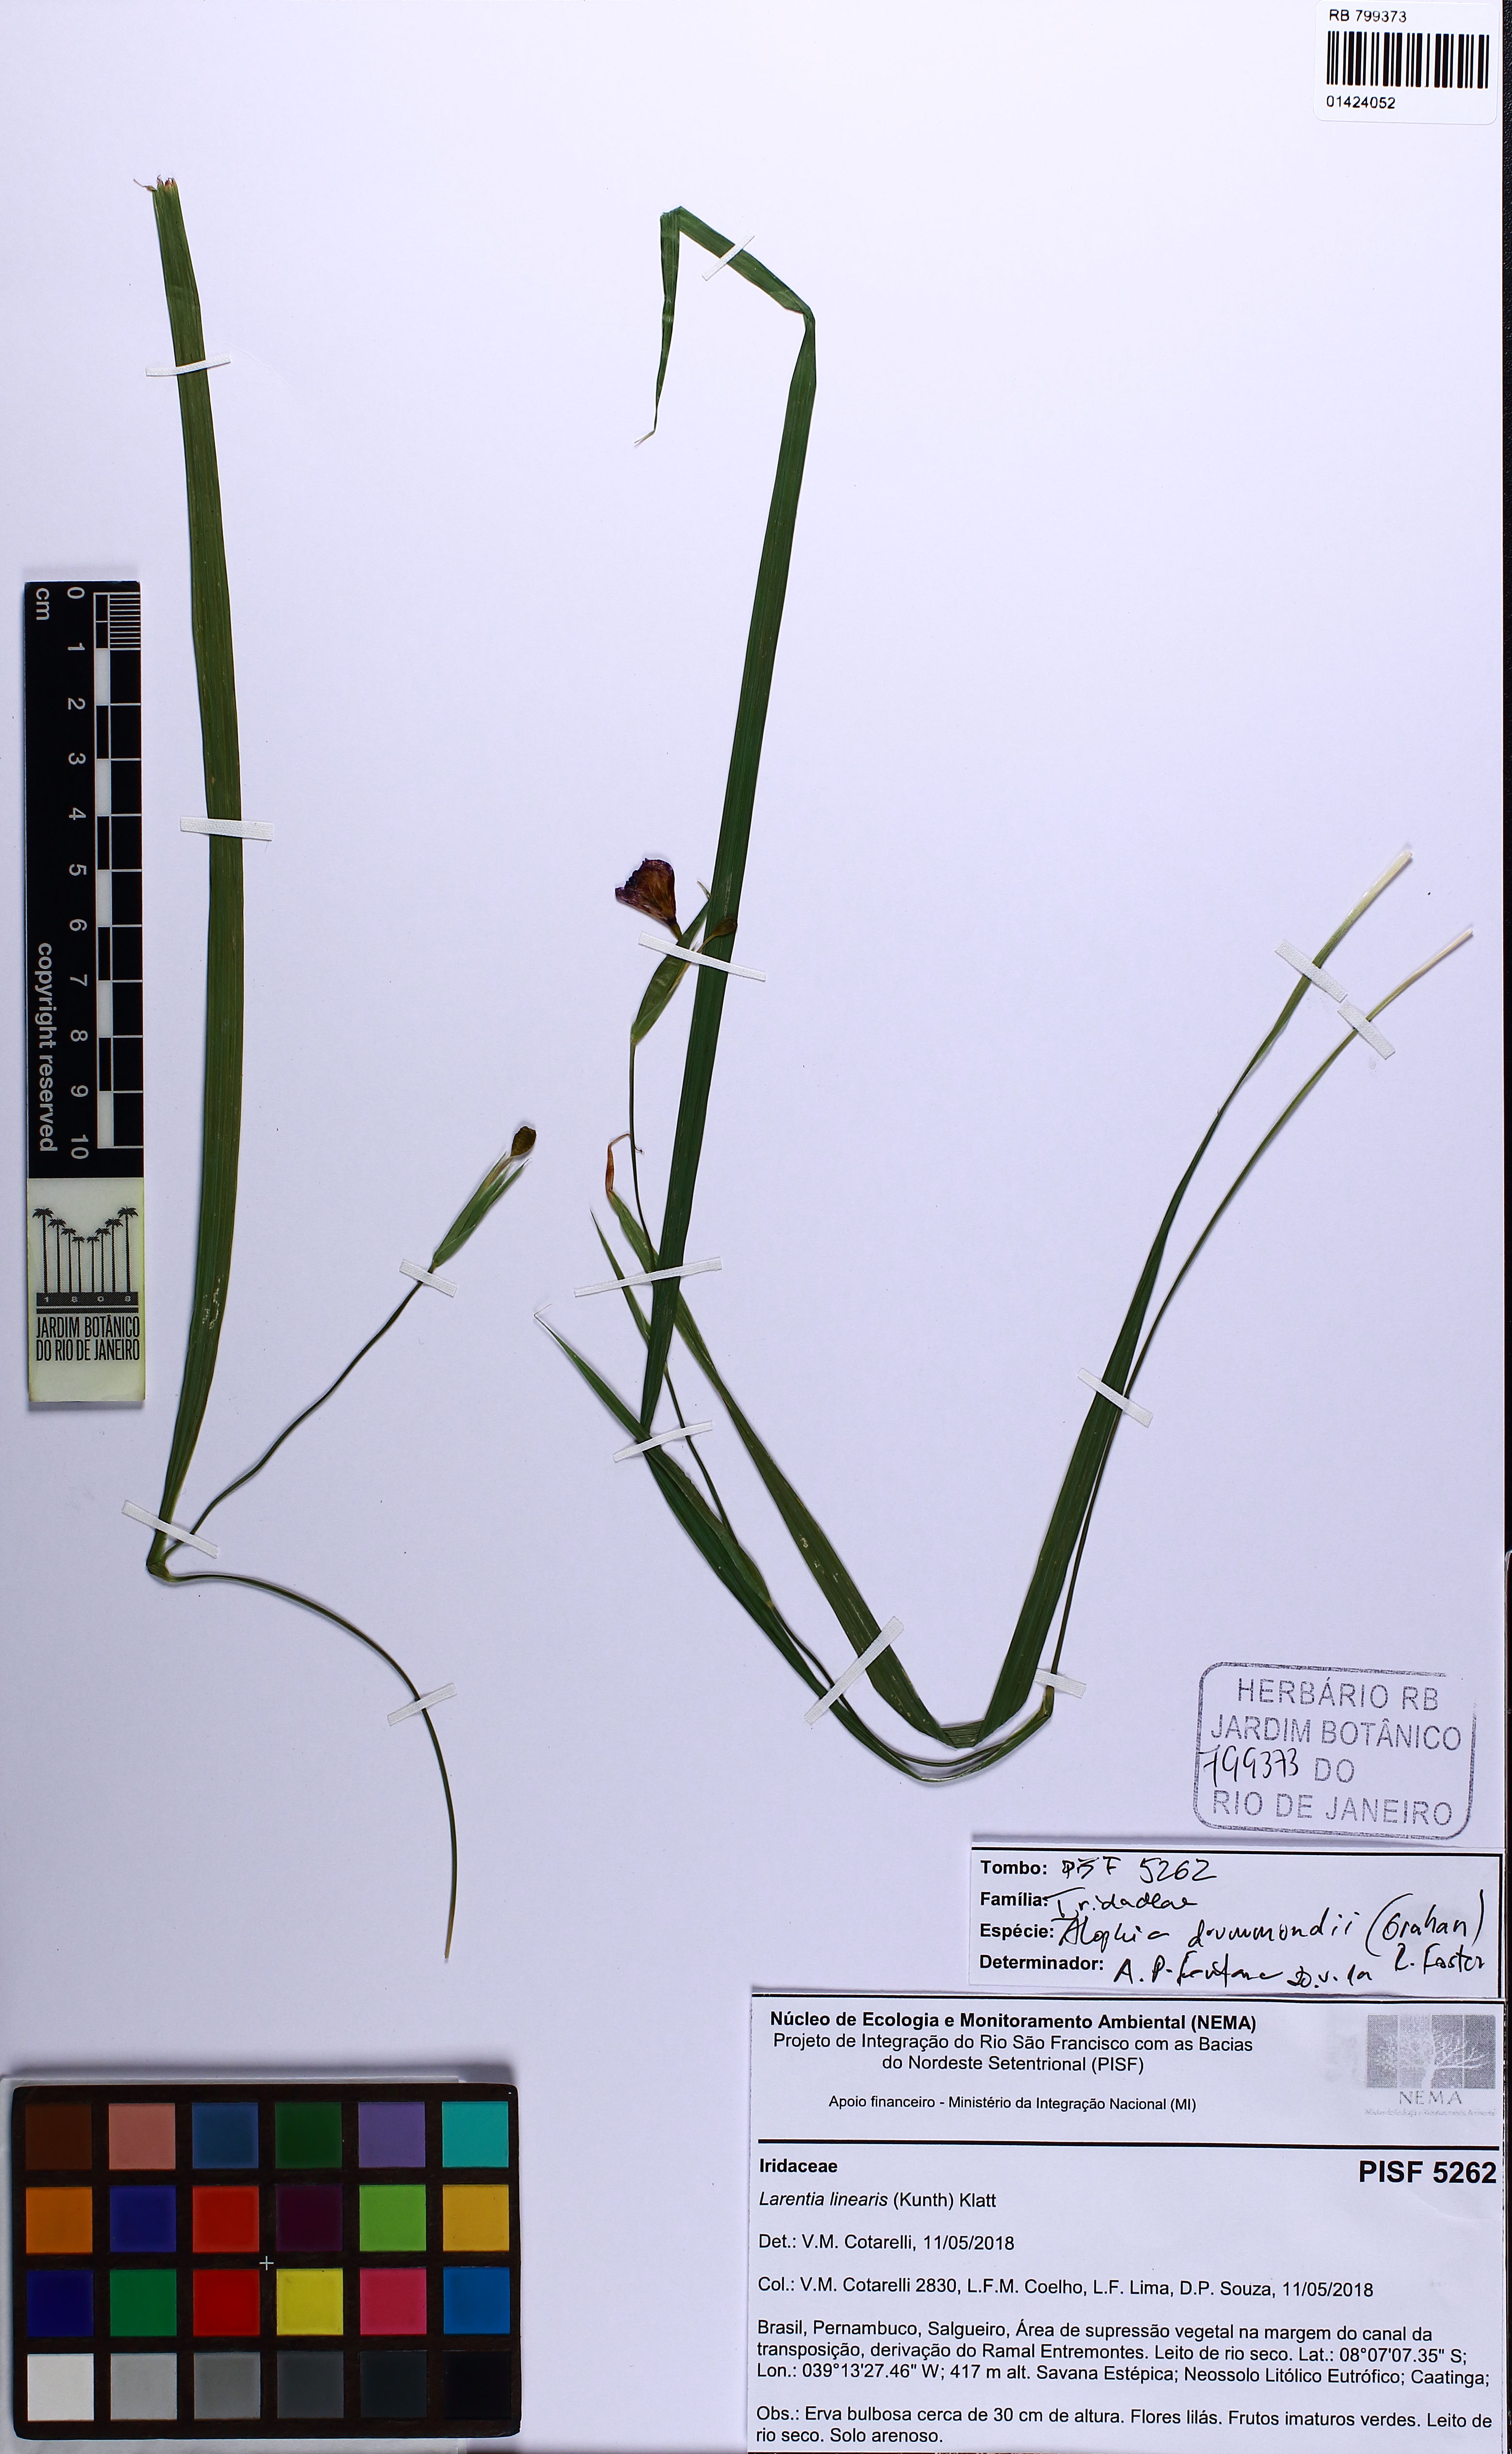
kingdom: Plantae
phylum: Tracheophyta
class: Liliopsida
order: Asparagales
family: Iridaceae
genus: Alophia
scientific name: Alophia drummondii
